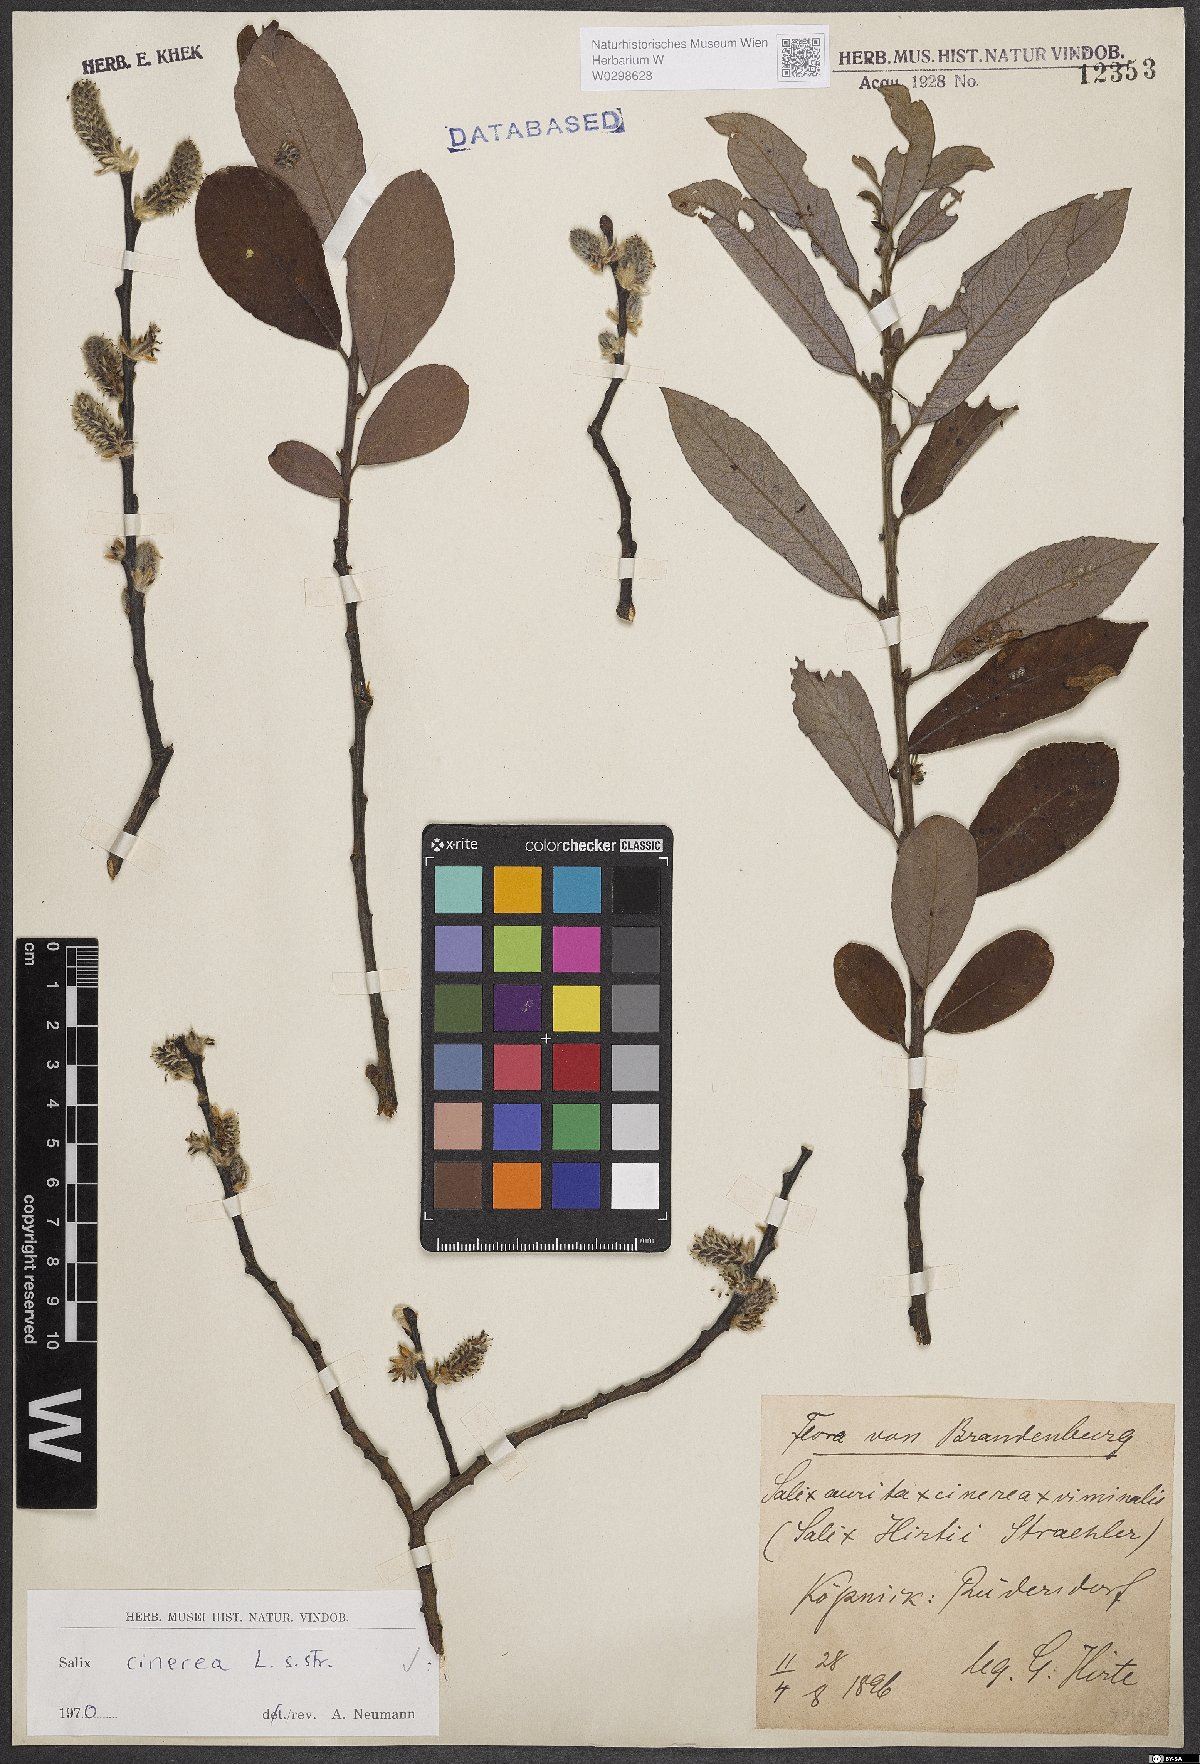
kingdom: Plantae
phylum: Tracheophyta
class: Magnoliopsida
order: Malpighiales
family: Salicaceae
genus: Salix
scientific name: Salix cinerea
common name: Common sallow
